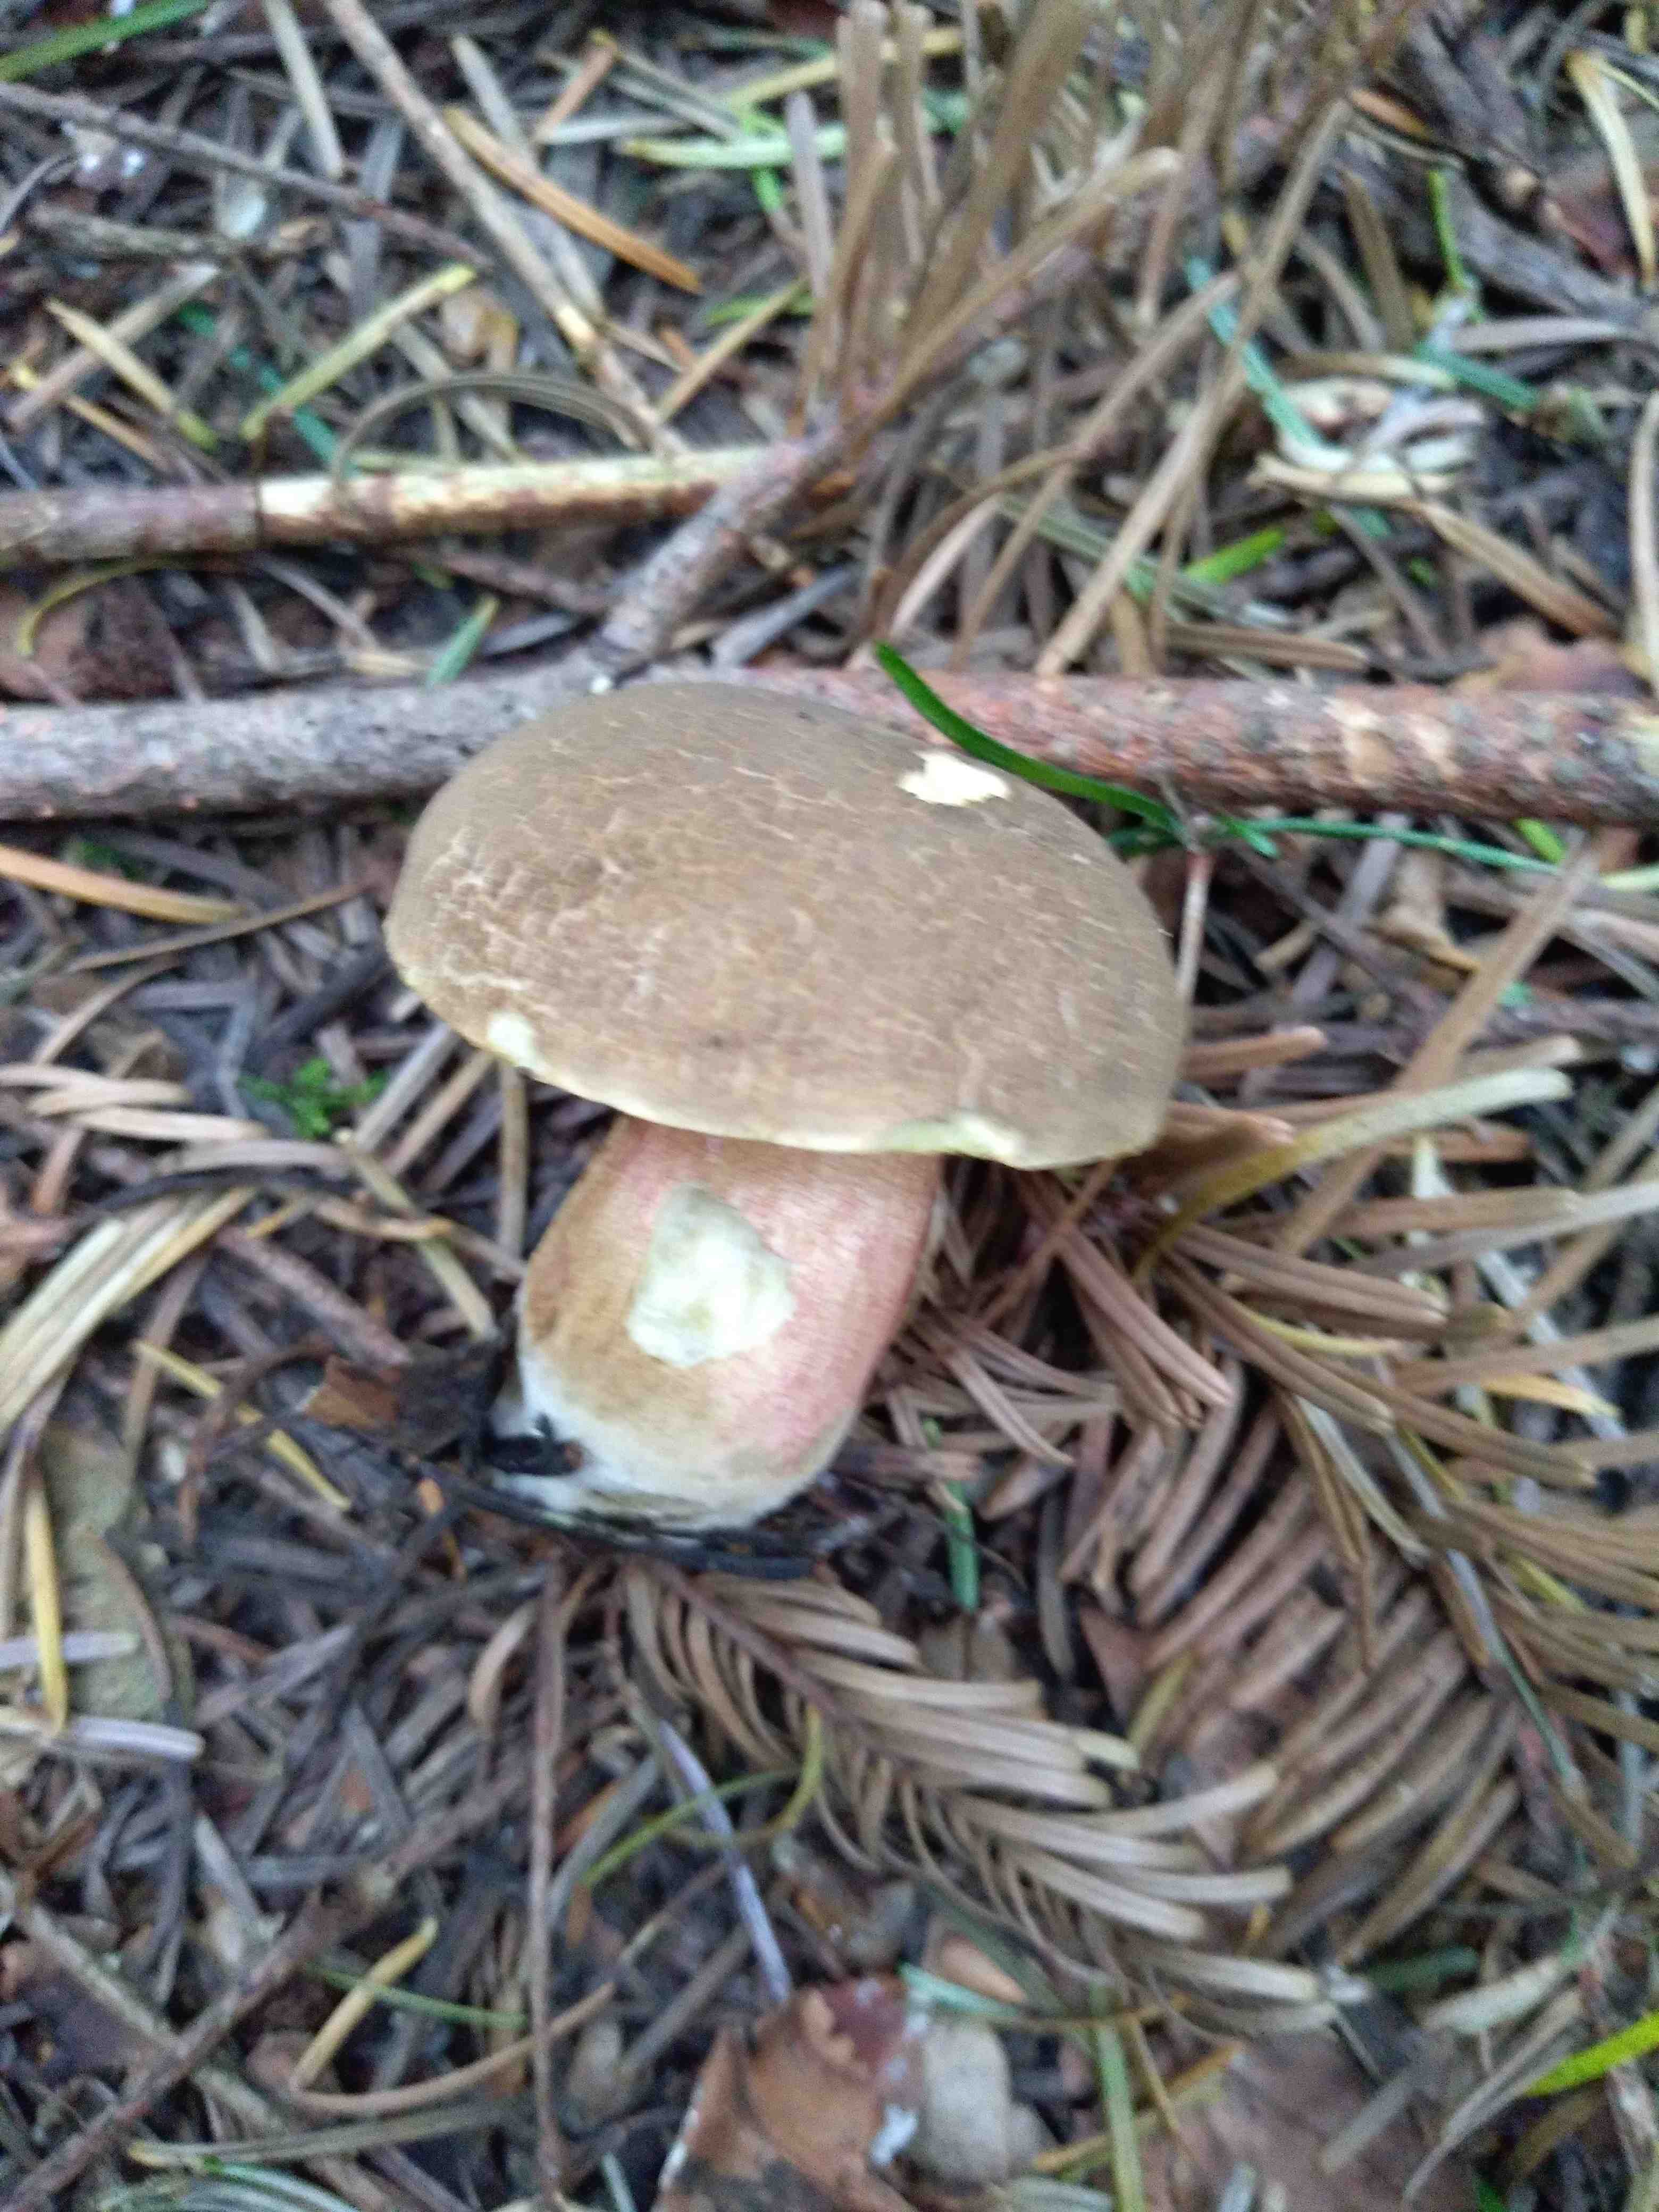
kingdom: Fungi
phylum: Basidiomycota
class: Agaricomycetes
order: Boletales
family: Boletaceae
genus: Xerocomellus
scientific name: Xerocomellus
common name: dværgrørhat
